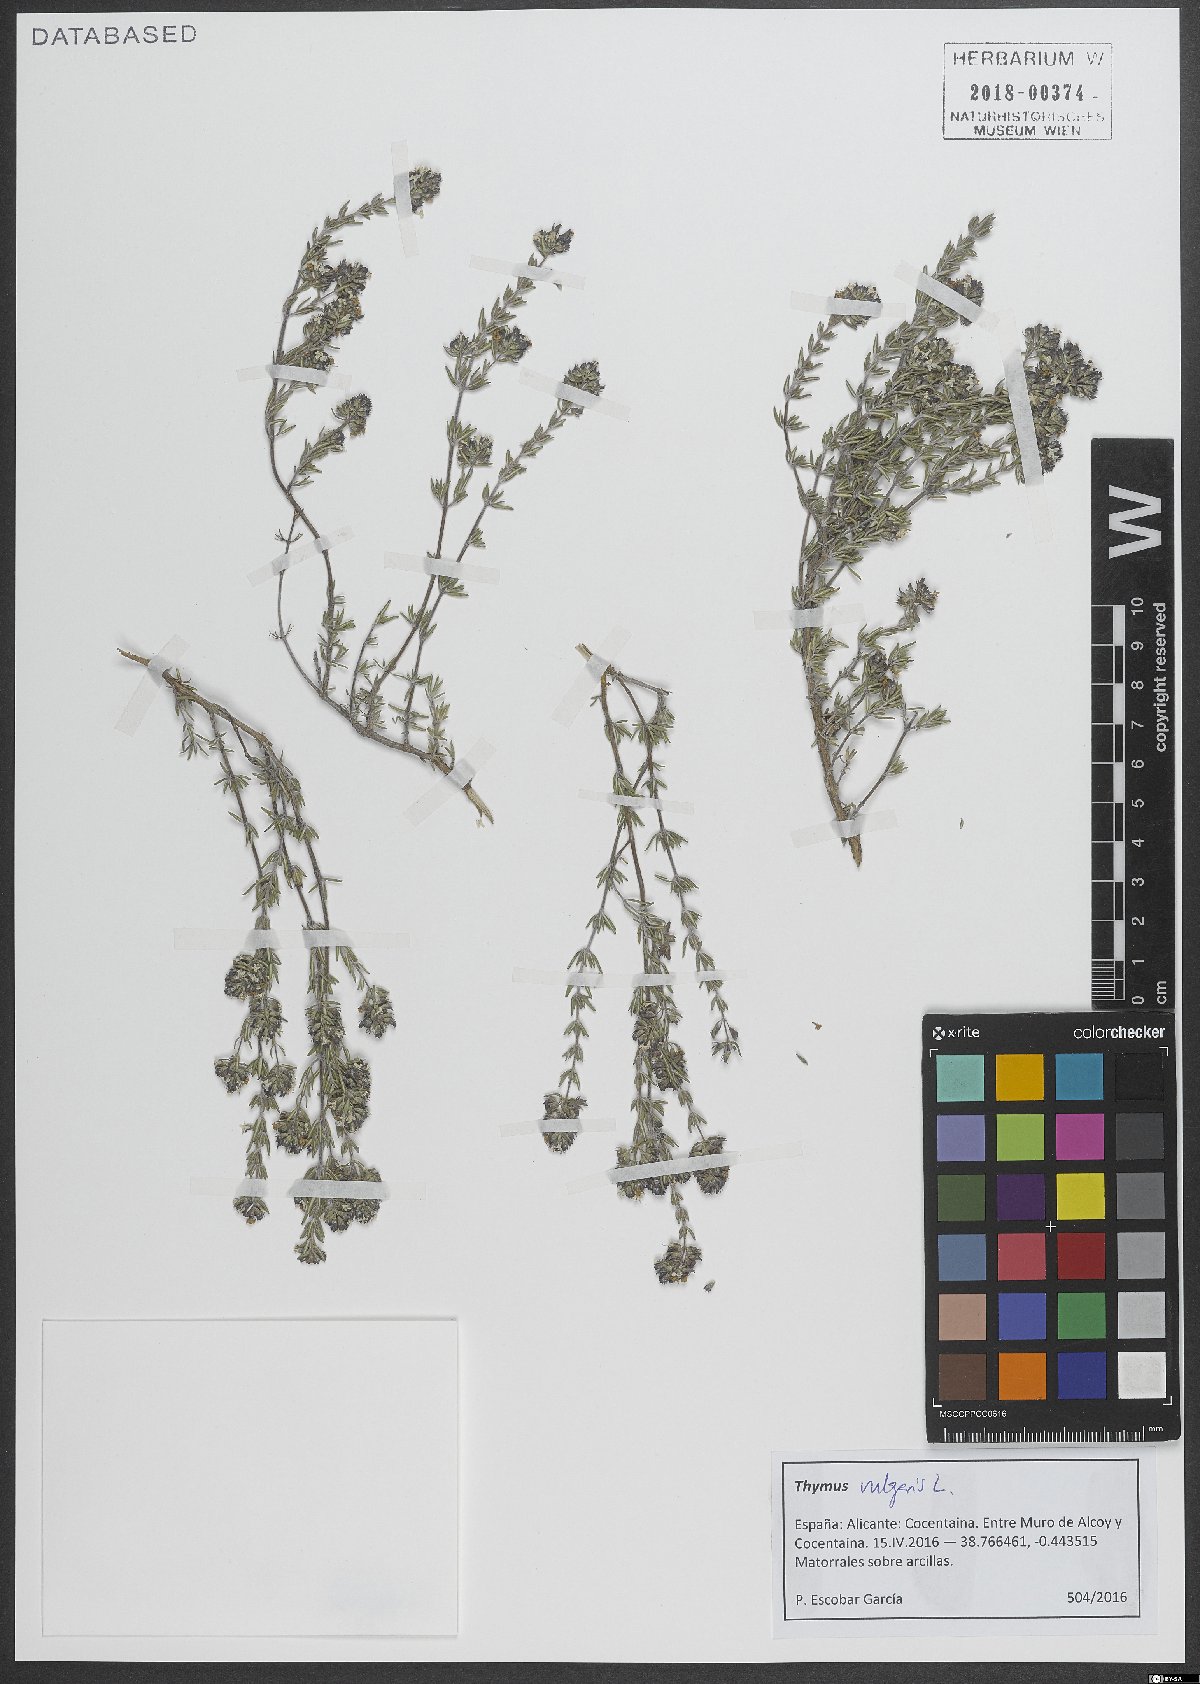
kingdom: Plantae
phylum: Tracheophyta
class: Magnoliopsida
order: Lamiales
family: Lamiaceae
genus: Thymus
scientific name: Thymus vulgaris
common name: Garden thyme
